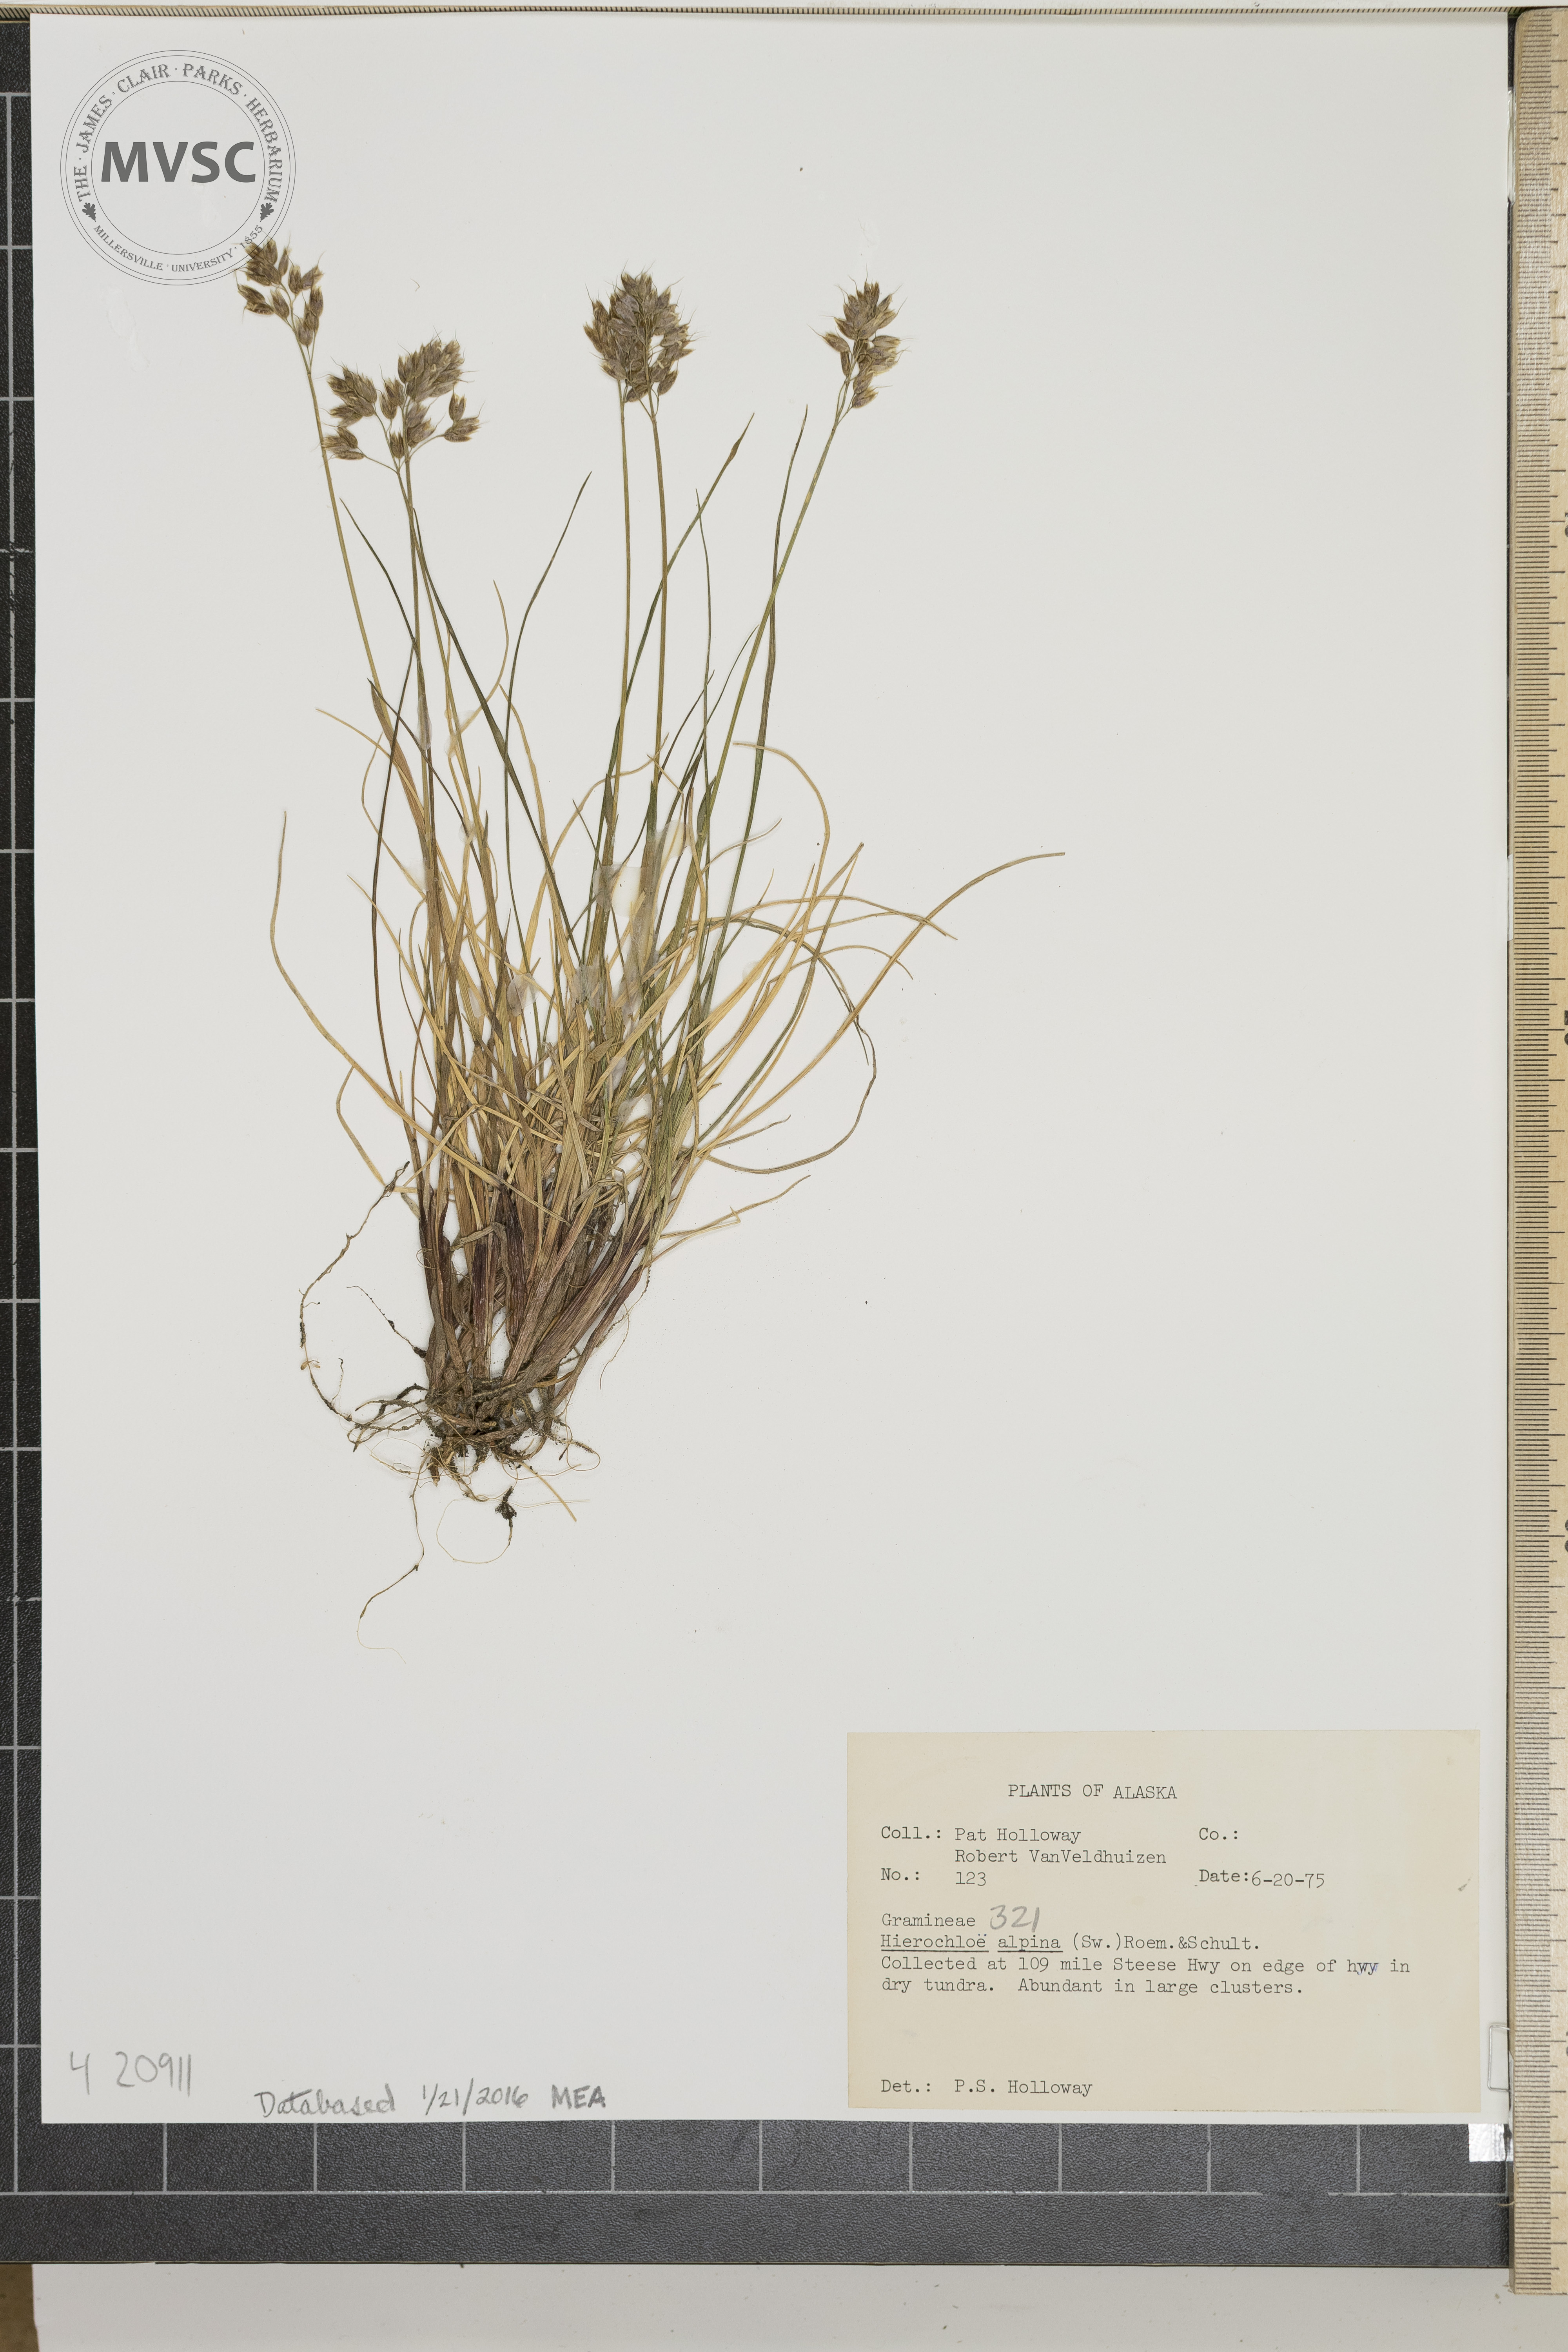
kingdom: Plantae
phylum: Tracheophyta
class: Liliopsida
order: Poales
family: Poaceae
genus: Anthoxanthum
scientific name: Anthoxanthum monticola
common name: Alpine Sweetgrass
